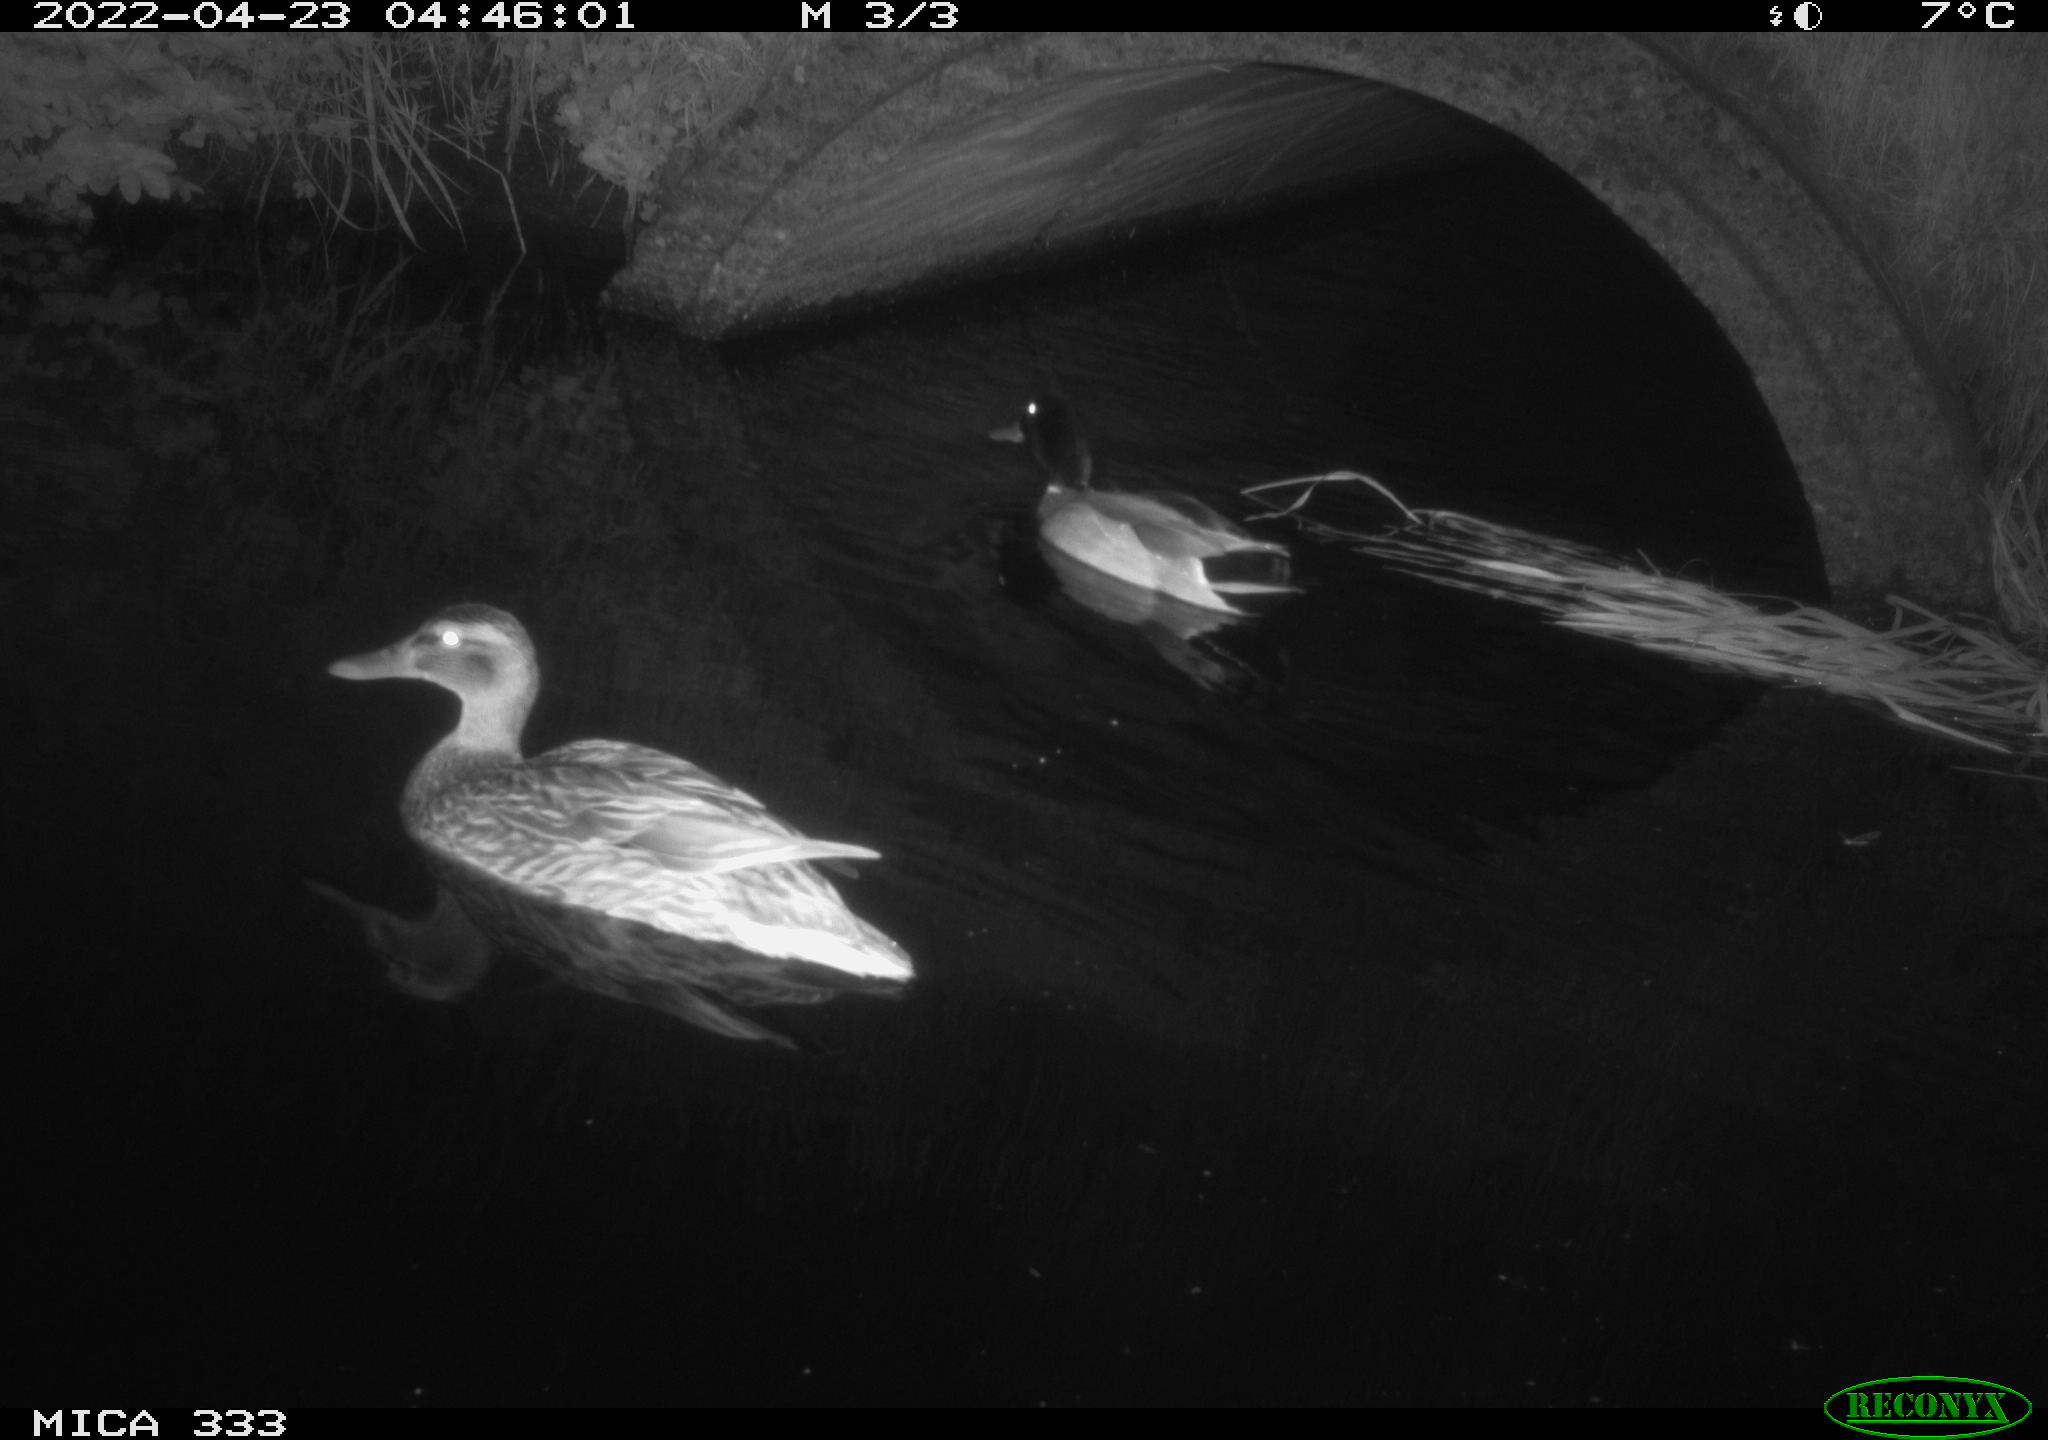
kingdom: Animalia
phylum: Chordata
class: Aves
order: Anseriformes
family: Anatidae
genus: Anas
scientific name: Anas platyrhynchos
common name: Mallard
